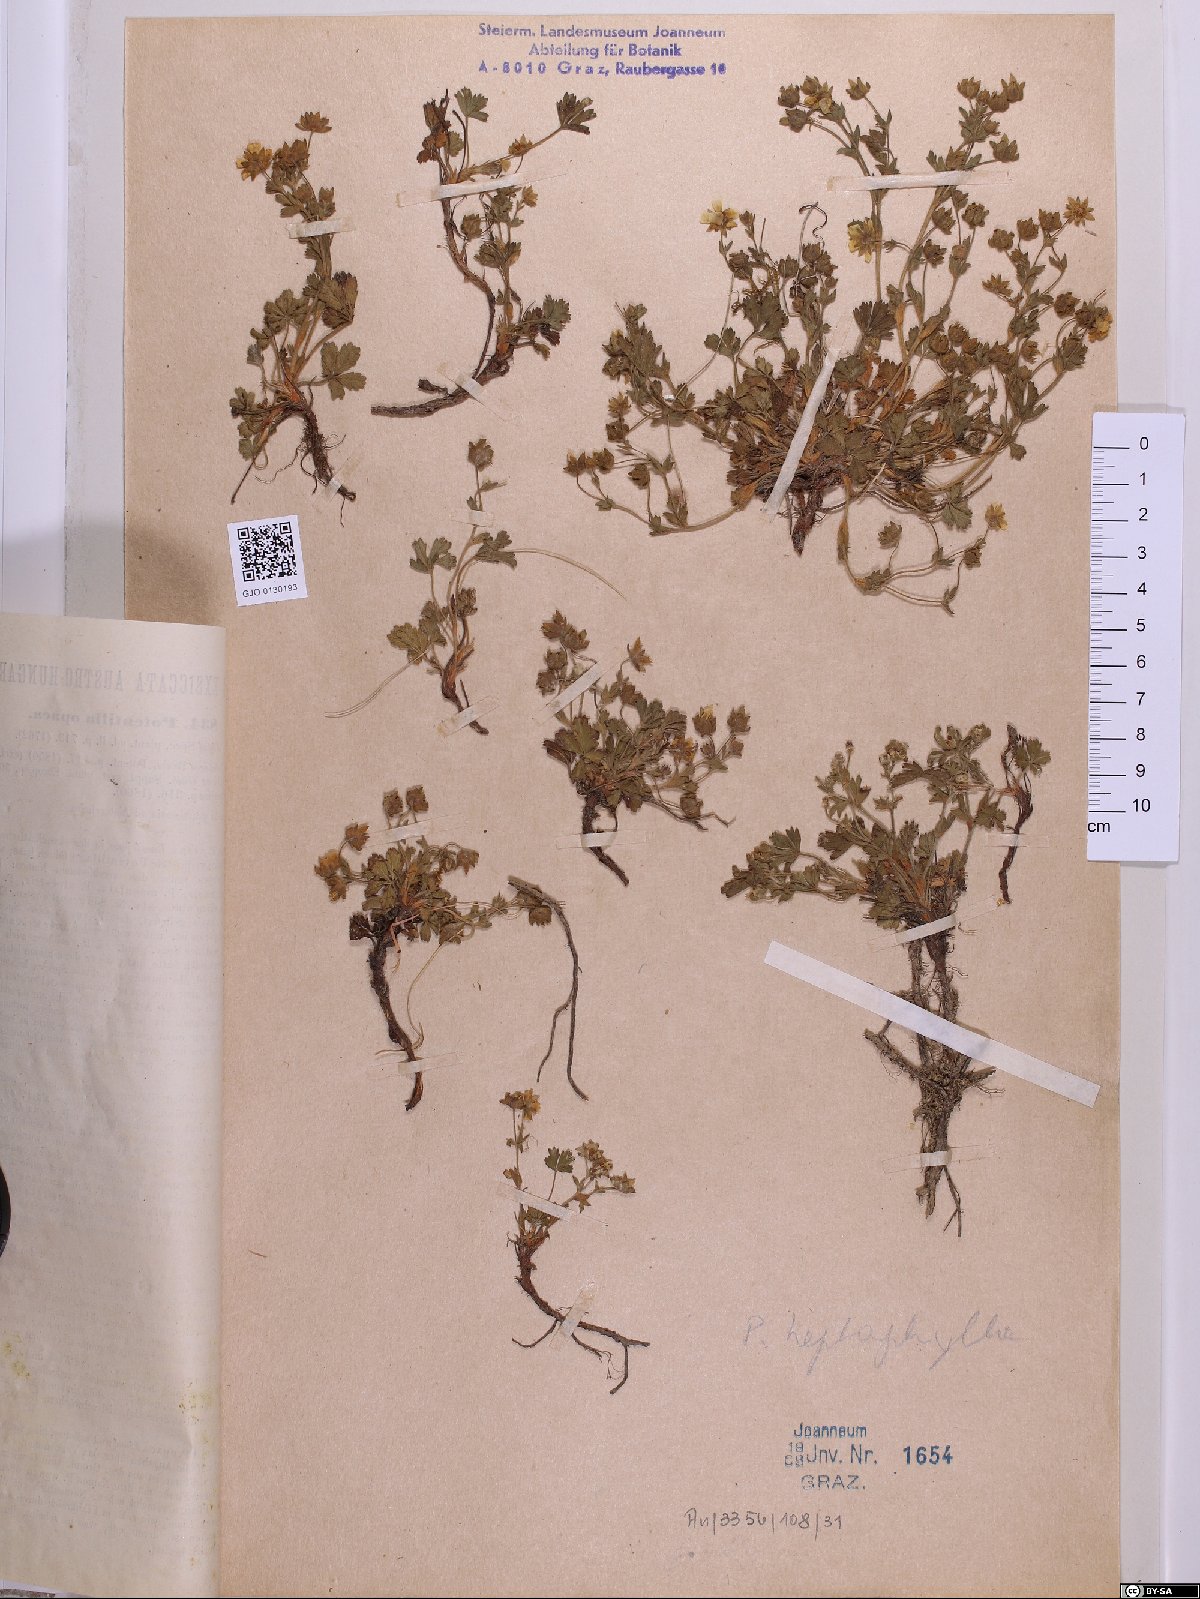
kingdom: Plantae
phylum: Tracheophyta
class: Magnoliopsida
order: Rosales
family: Rosaceae
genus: Potentilla
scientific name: Potentilla
